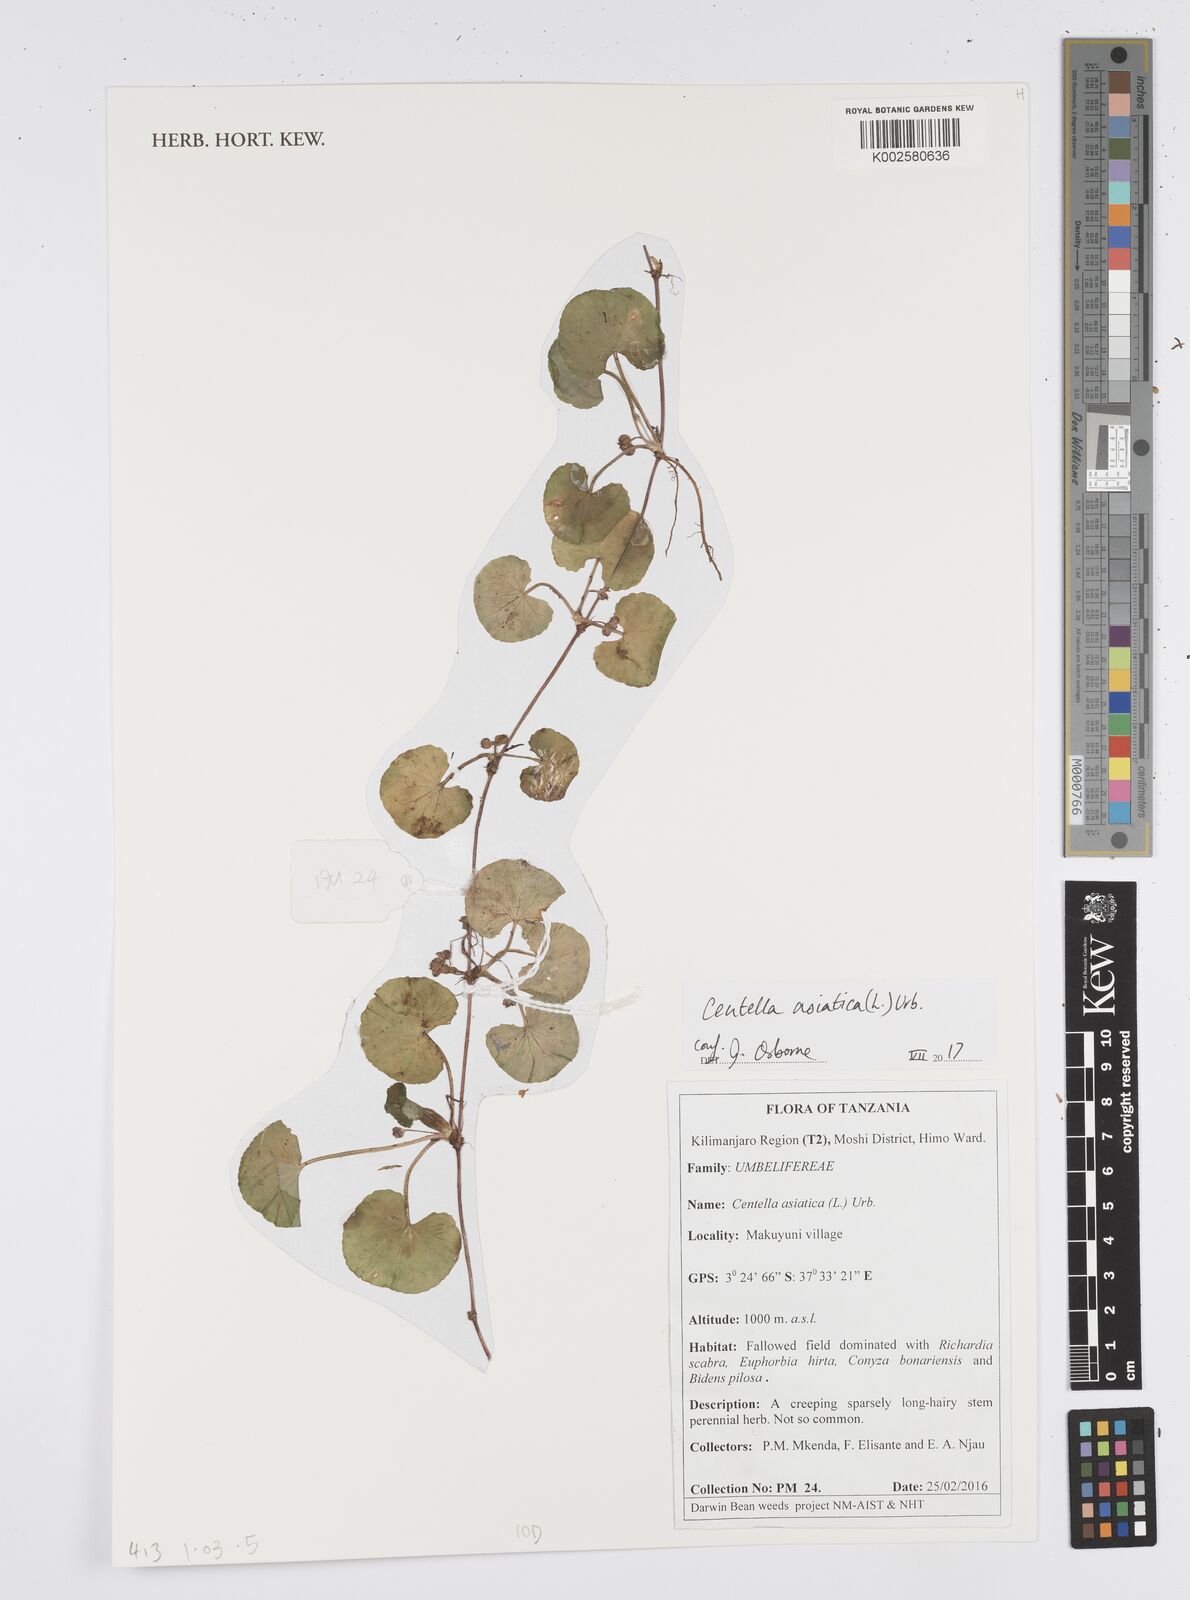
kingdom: Plantae
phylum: Tracheophyta
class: Magnoliopsida
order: Apiales
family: Apiaceae
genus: Centella
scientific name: Centella asiatica
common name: Spadeleaf
